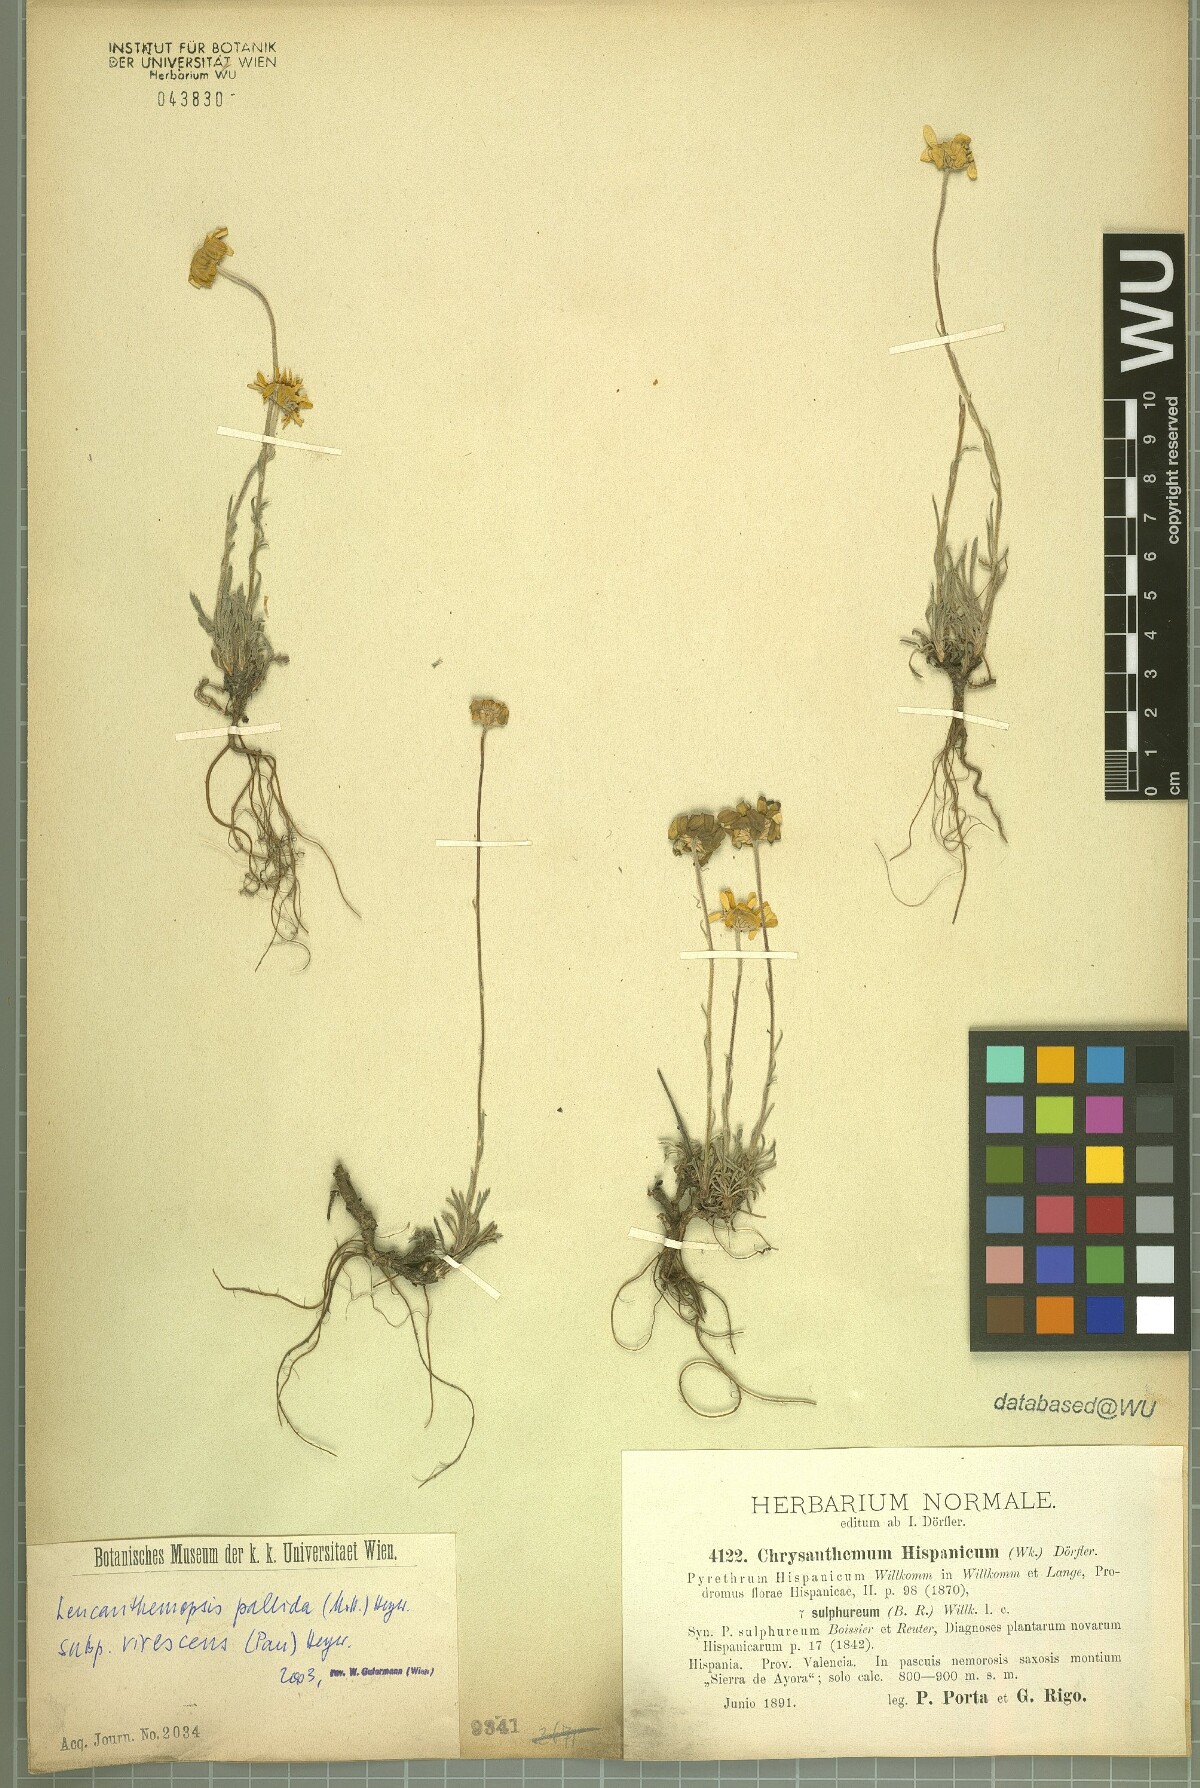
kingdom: Plantae
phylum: Tracheophyta
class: Magnoliopsida
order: Asterales
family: Asteraceae
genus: Leucanthemopsis
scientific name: Leucanthemopsis pallida
